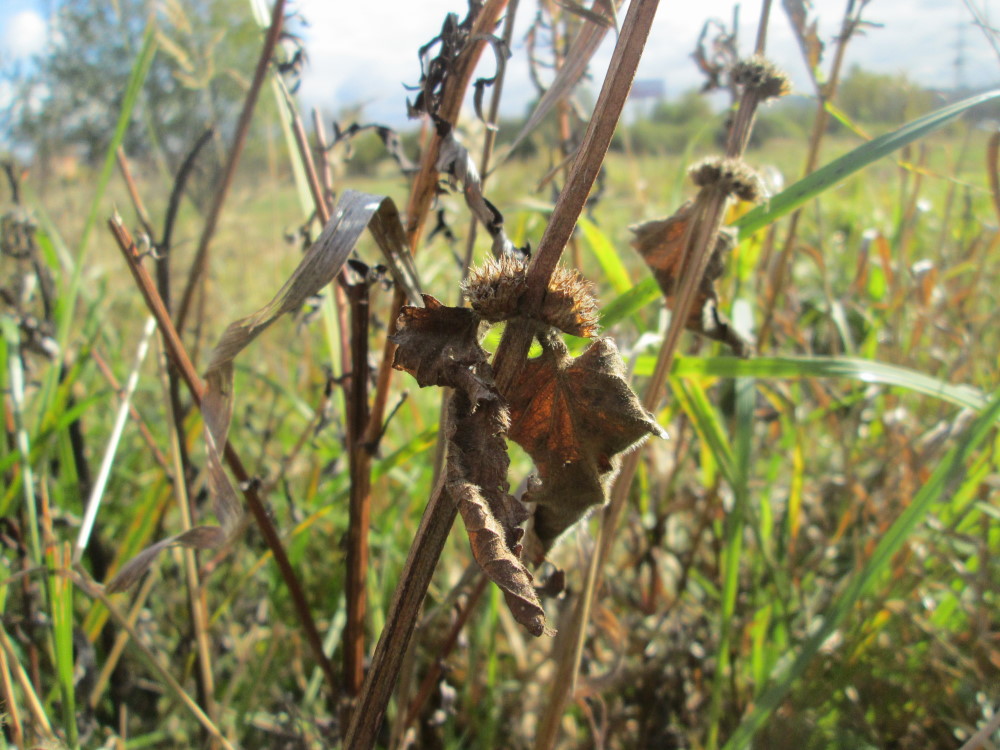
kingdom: Plantae
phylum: Tracheophyta
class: Magnoliopsida
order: Lamiales
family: Lamiaceae
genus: Betonica
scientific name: Betonica officinalis
